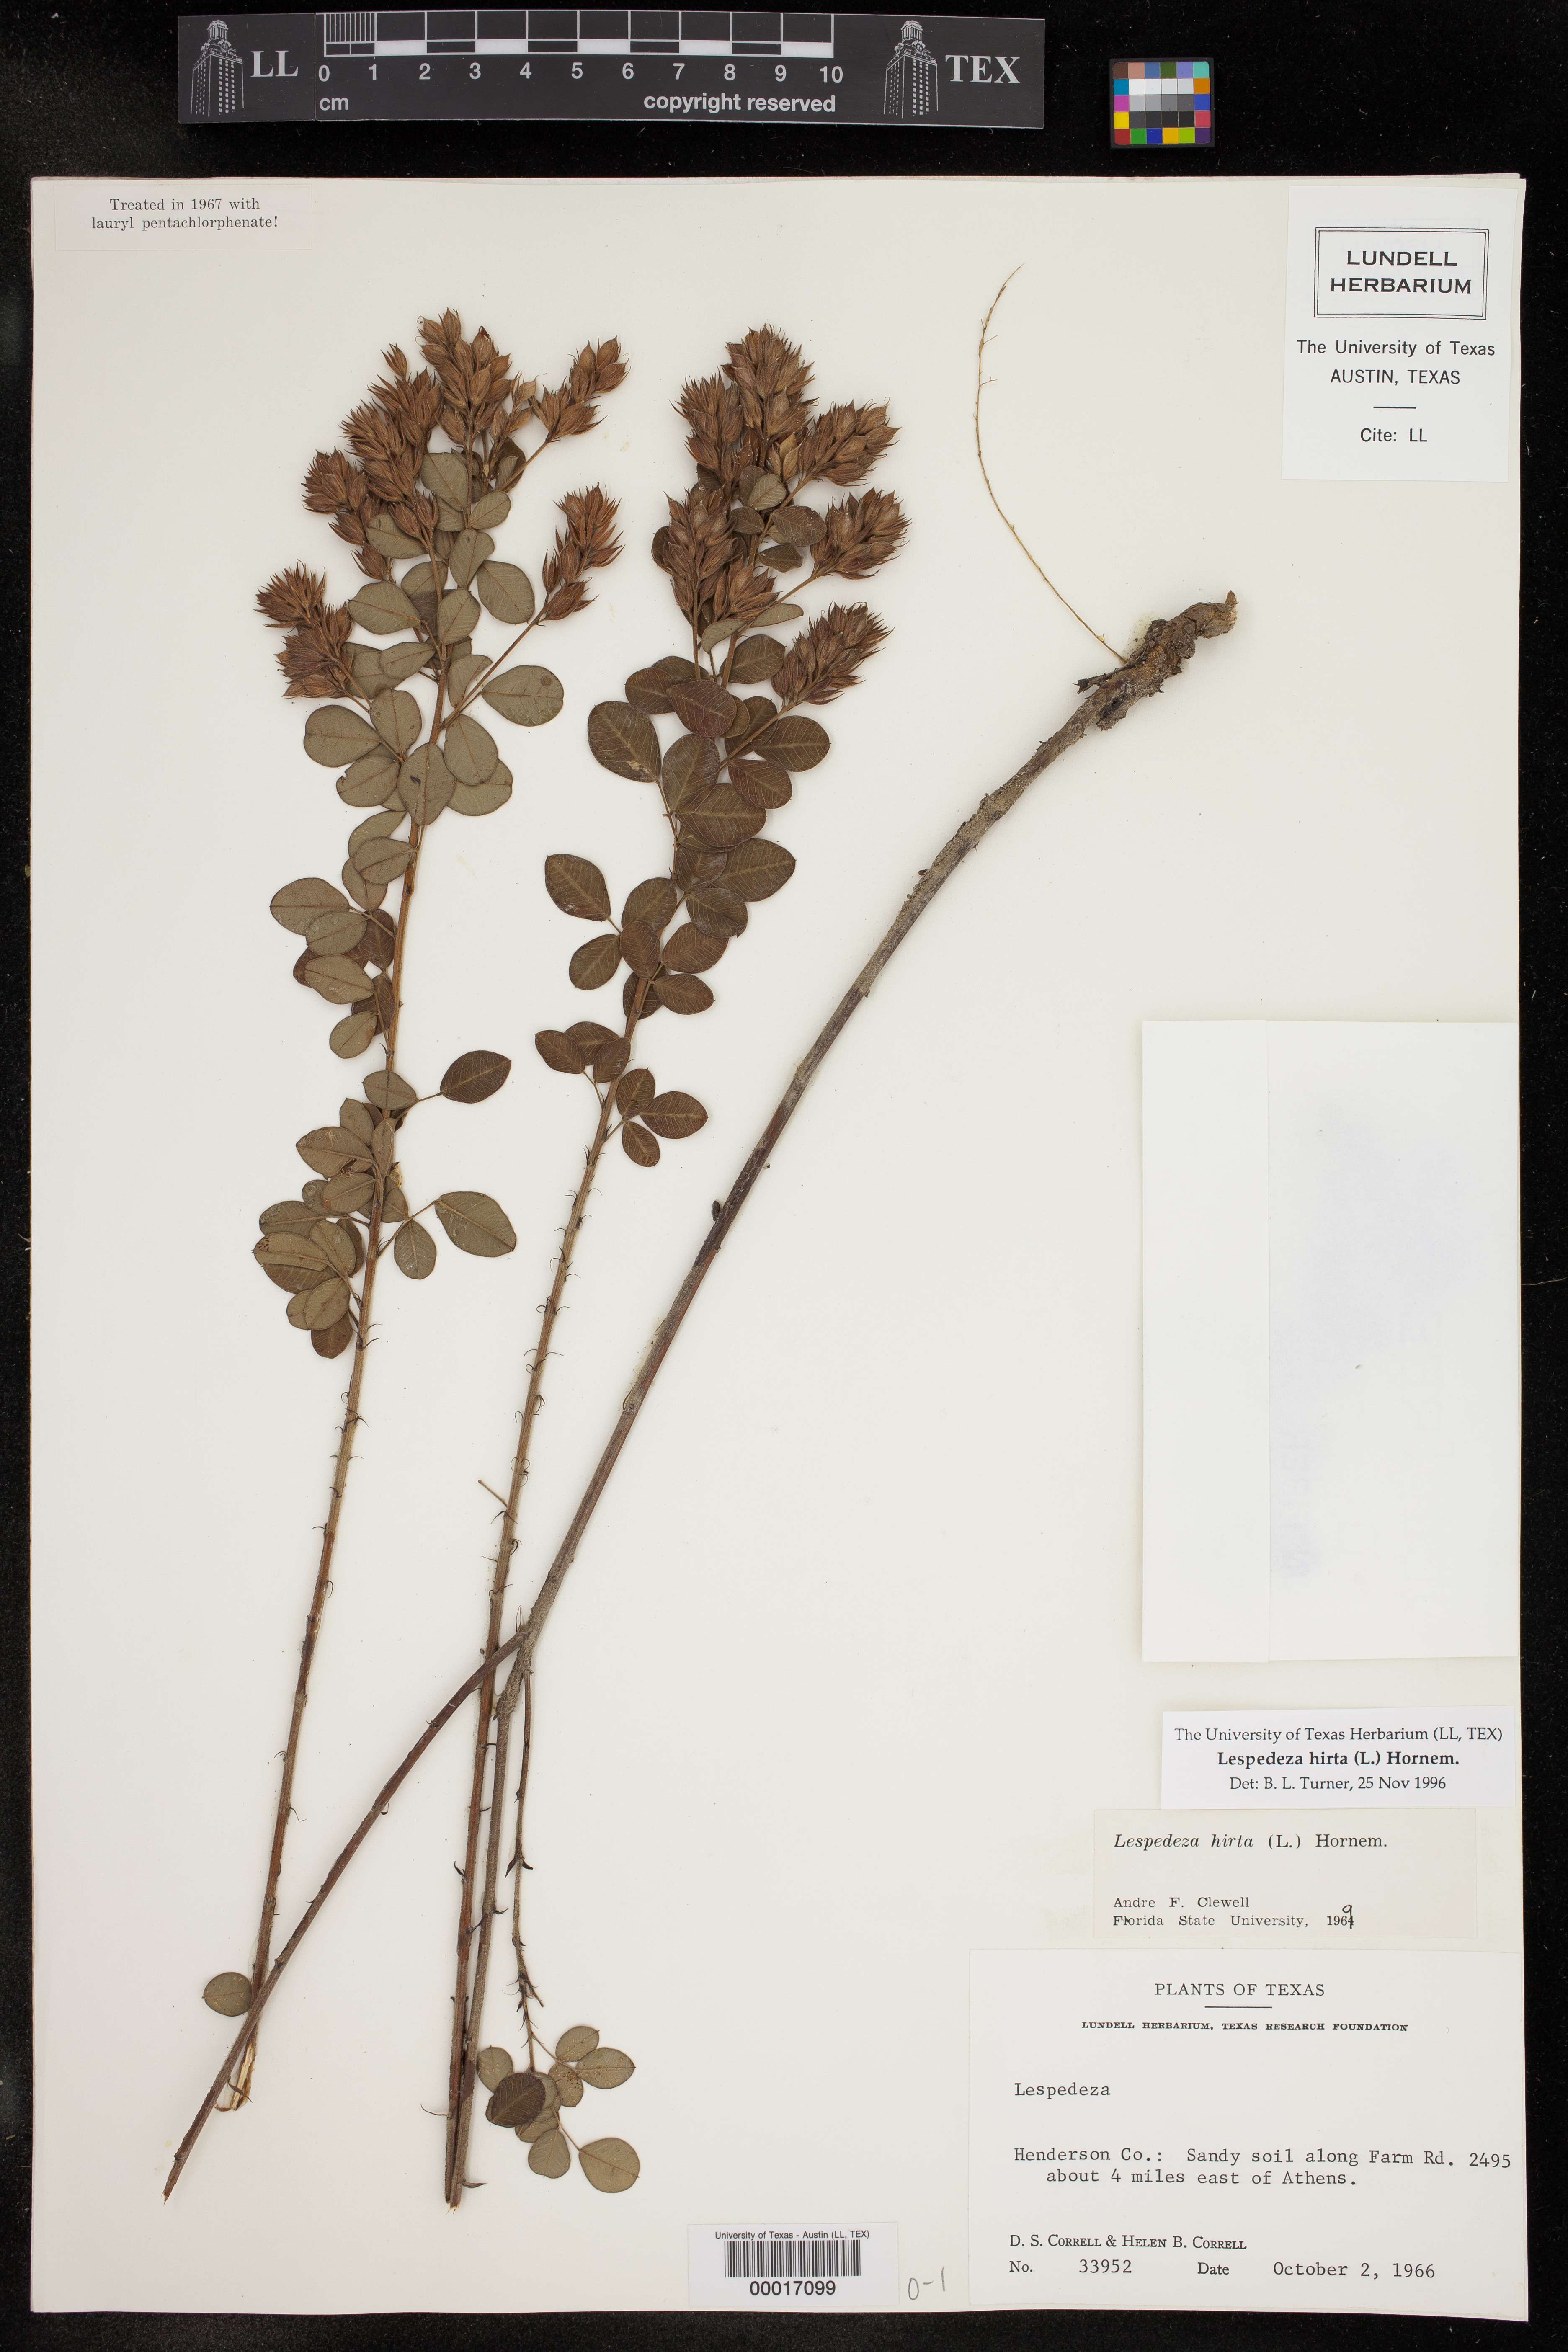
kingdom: Plantae
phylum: Tracheophyta
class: Magnoliopsida
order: Fabales
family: Fabaceae
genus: Lespedeza
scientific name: Lespedeza hirta
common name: Hairy lespedeza
